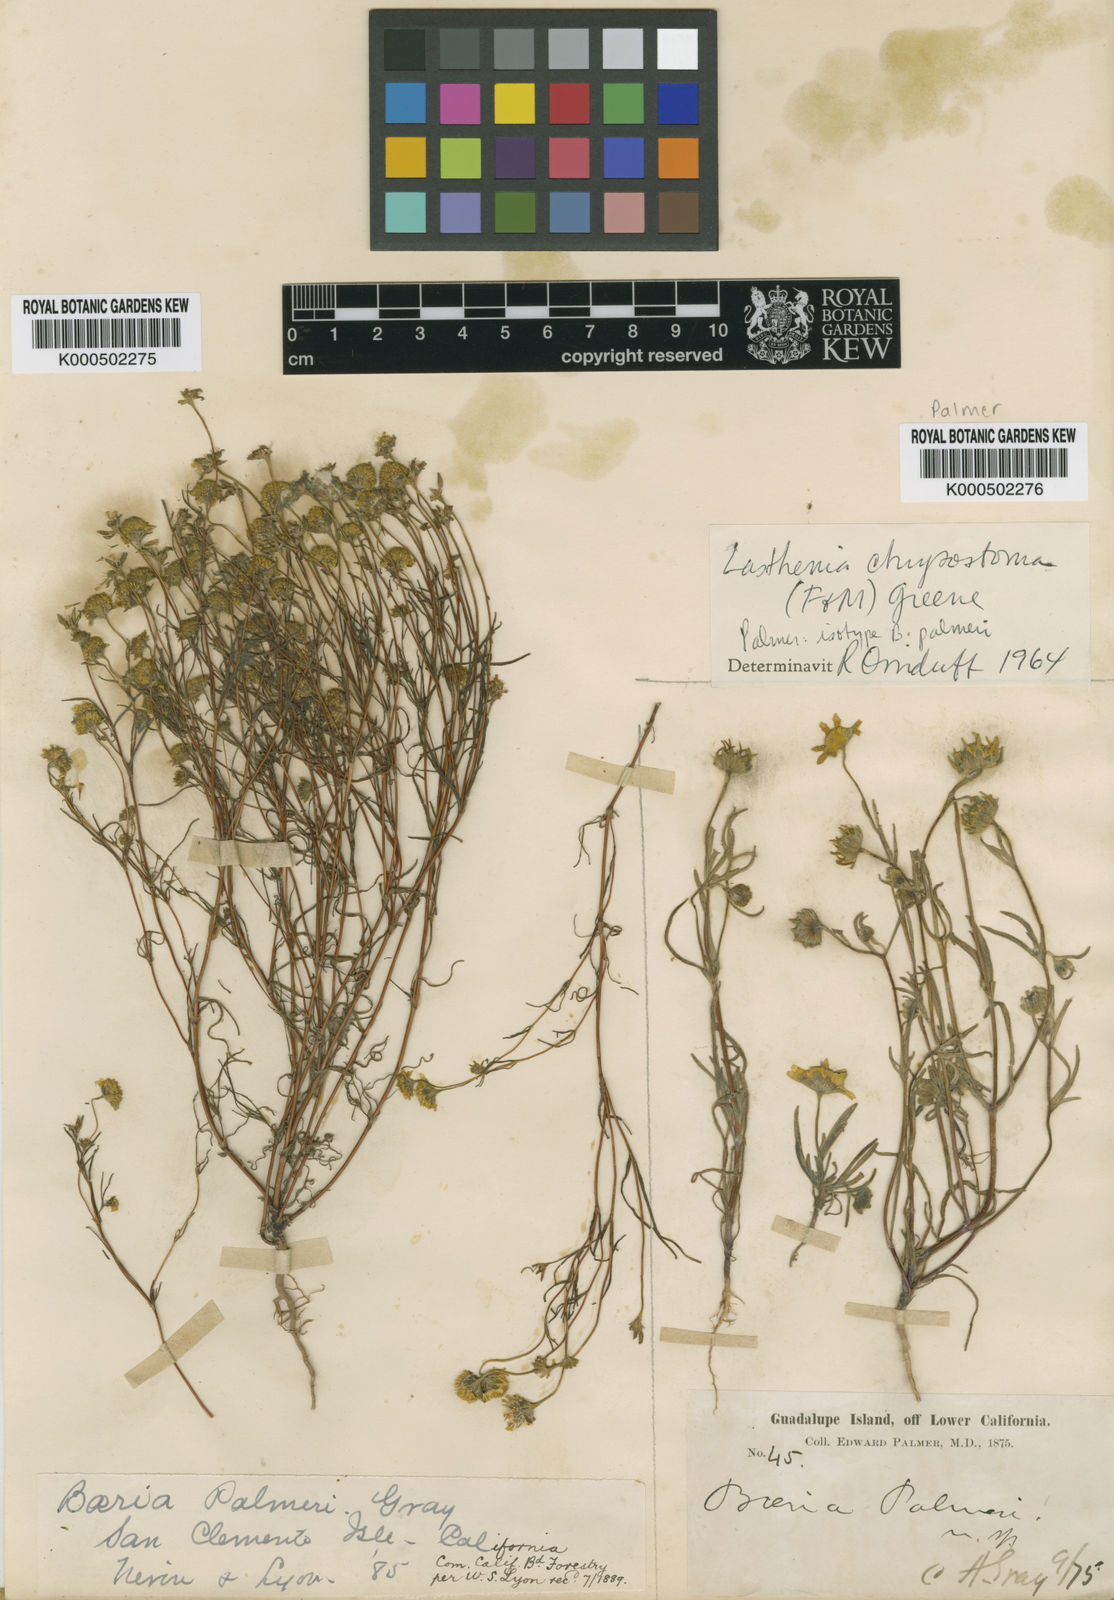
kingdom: Plantae
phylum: Tracheophyta
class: Magnoliopsida
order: Asterales
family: Asteraceae
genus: Lasthenia
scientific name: Lasthenia californica
